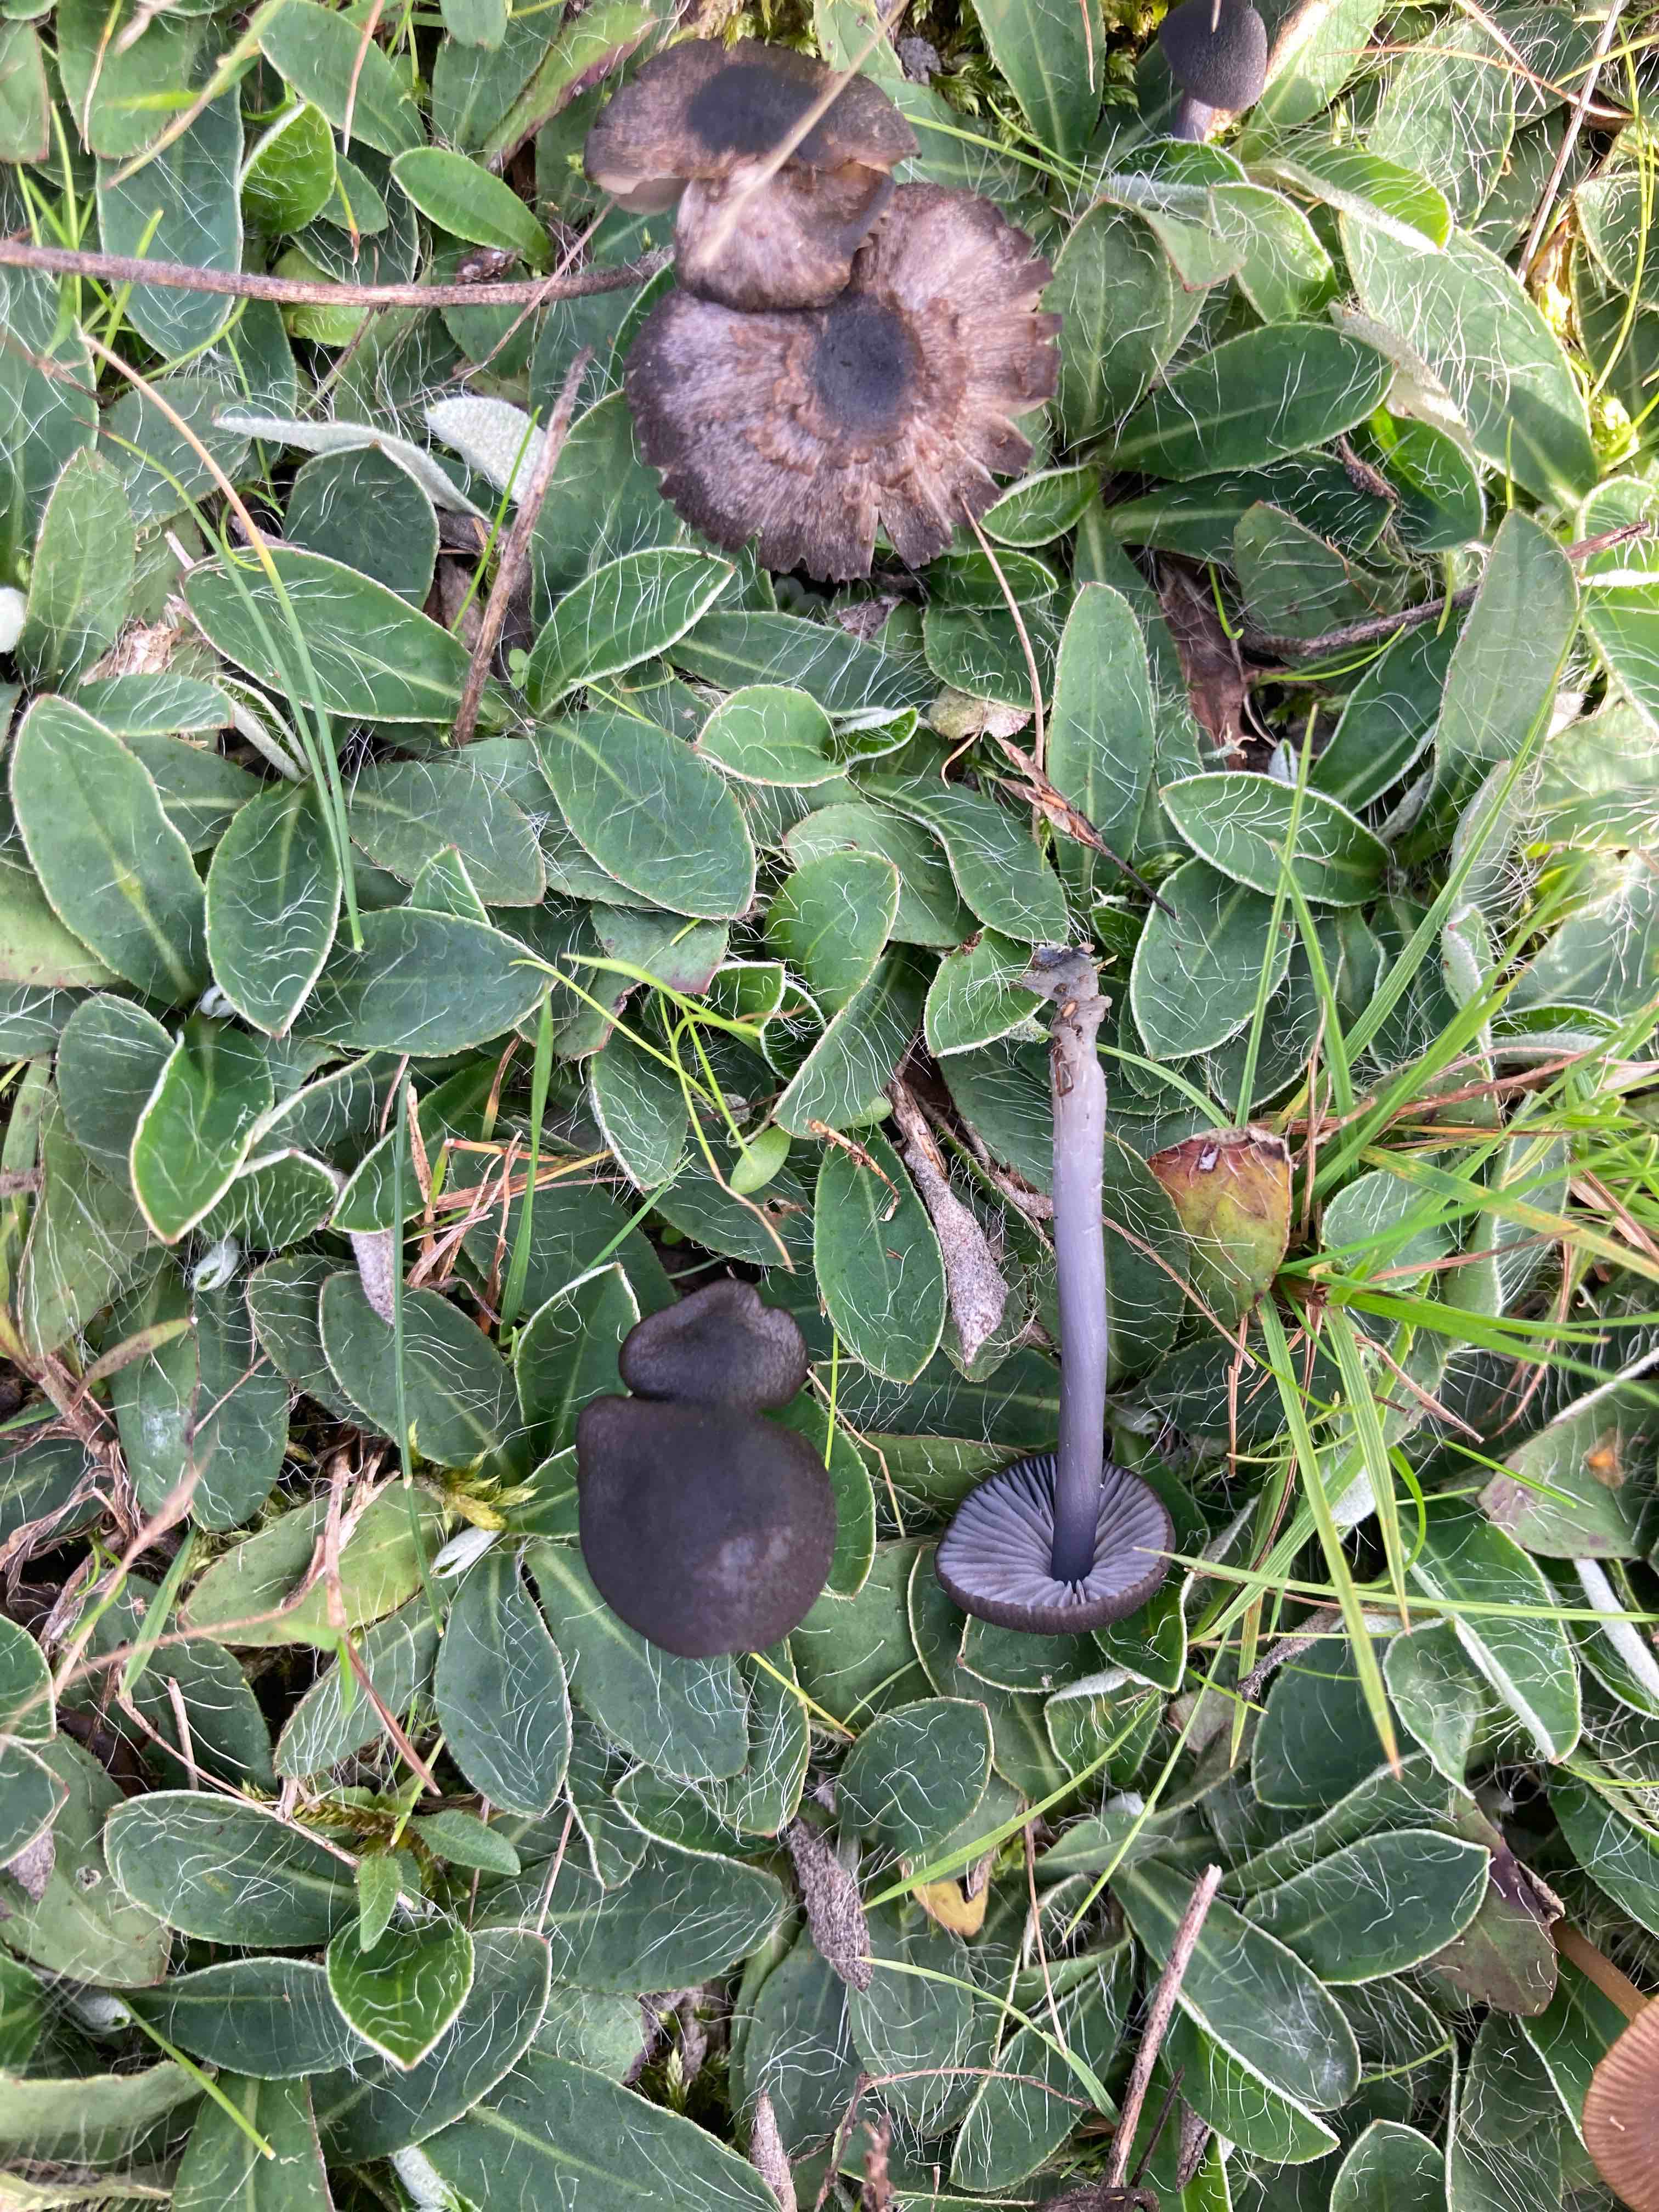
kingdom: Fungi
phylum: Basidiomycota
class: Agaricomycetes
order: Agaricales
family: Entolomataceae
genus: Entoloma
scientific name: Entoloma chalybeum
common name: blåbladet rødblad
